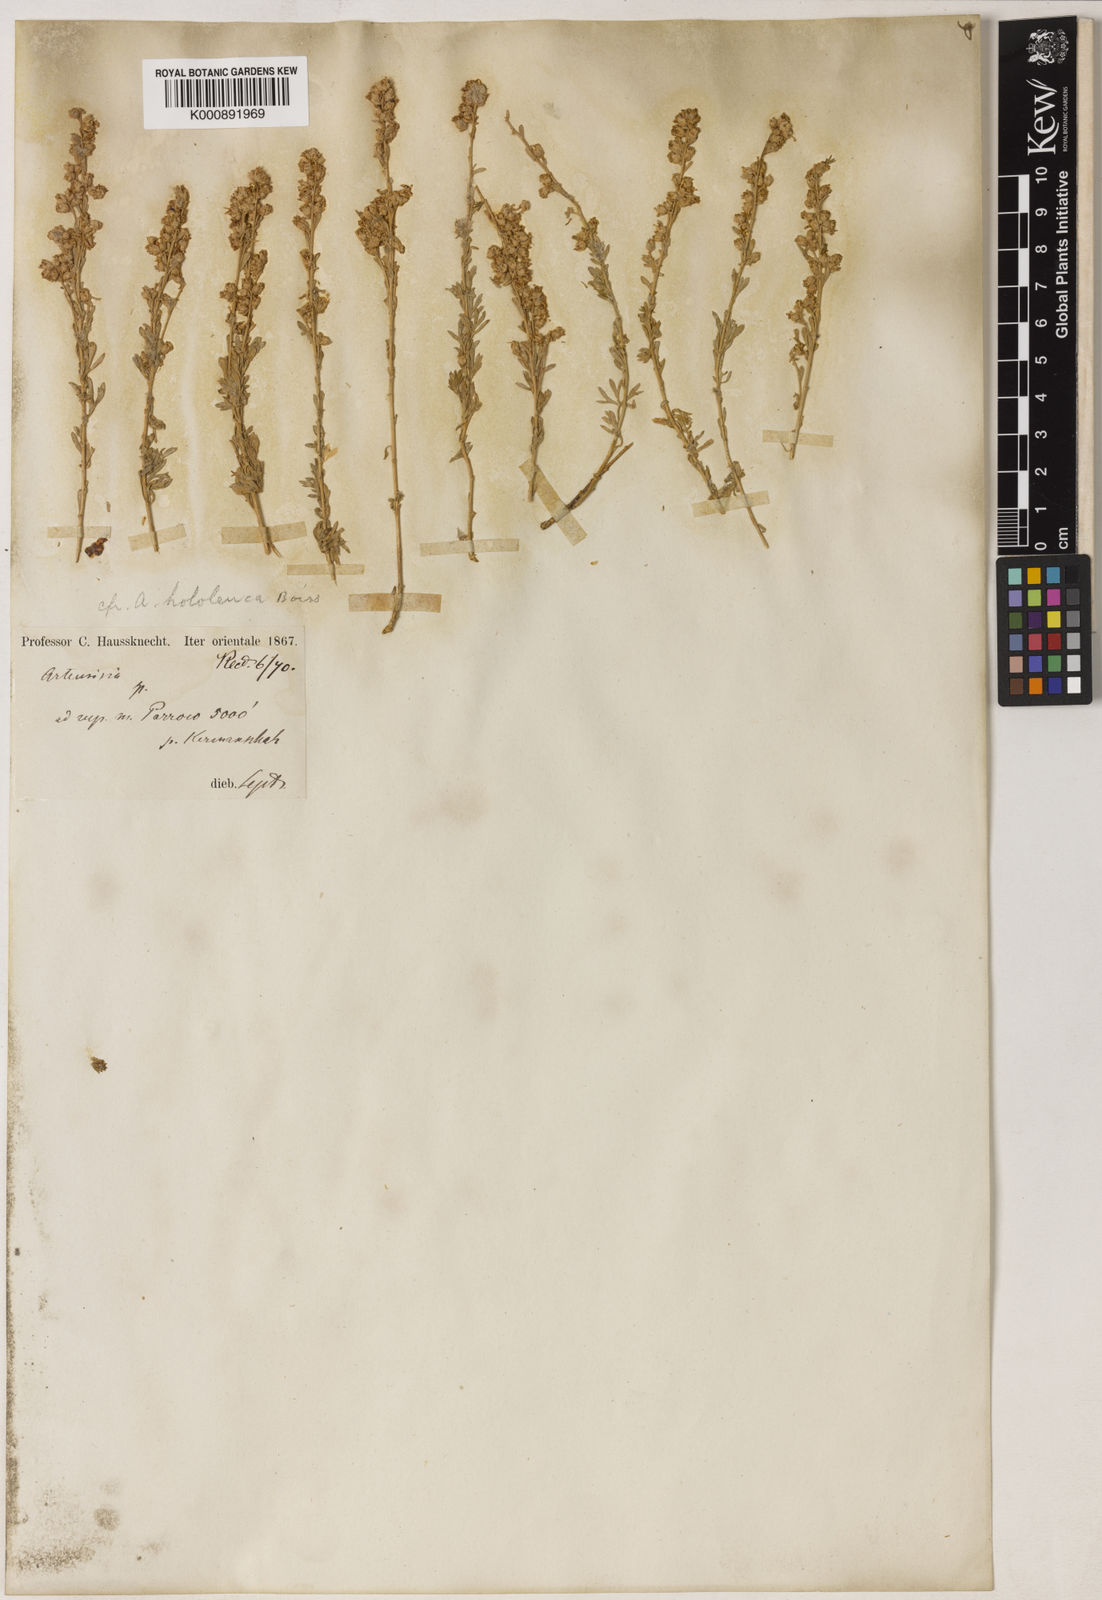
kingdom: Plantae
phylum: Tracheophyta
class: Magnoliopsida
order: Asterales
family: Asteraceae
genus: Artemisia
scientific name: Artemisia haussknechtii
